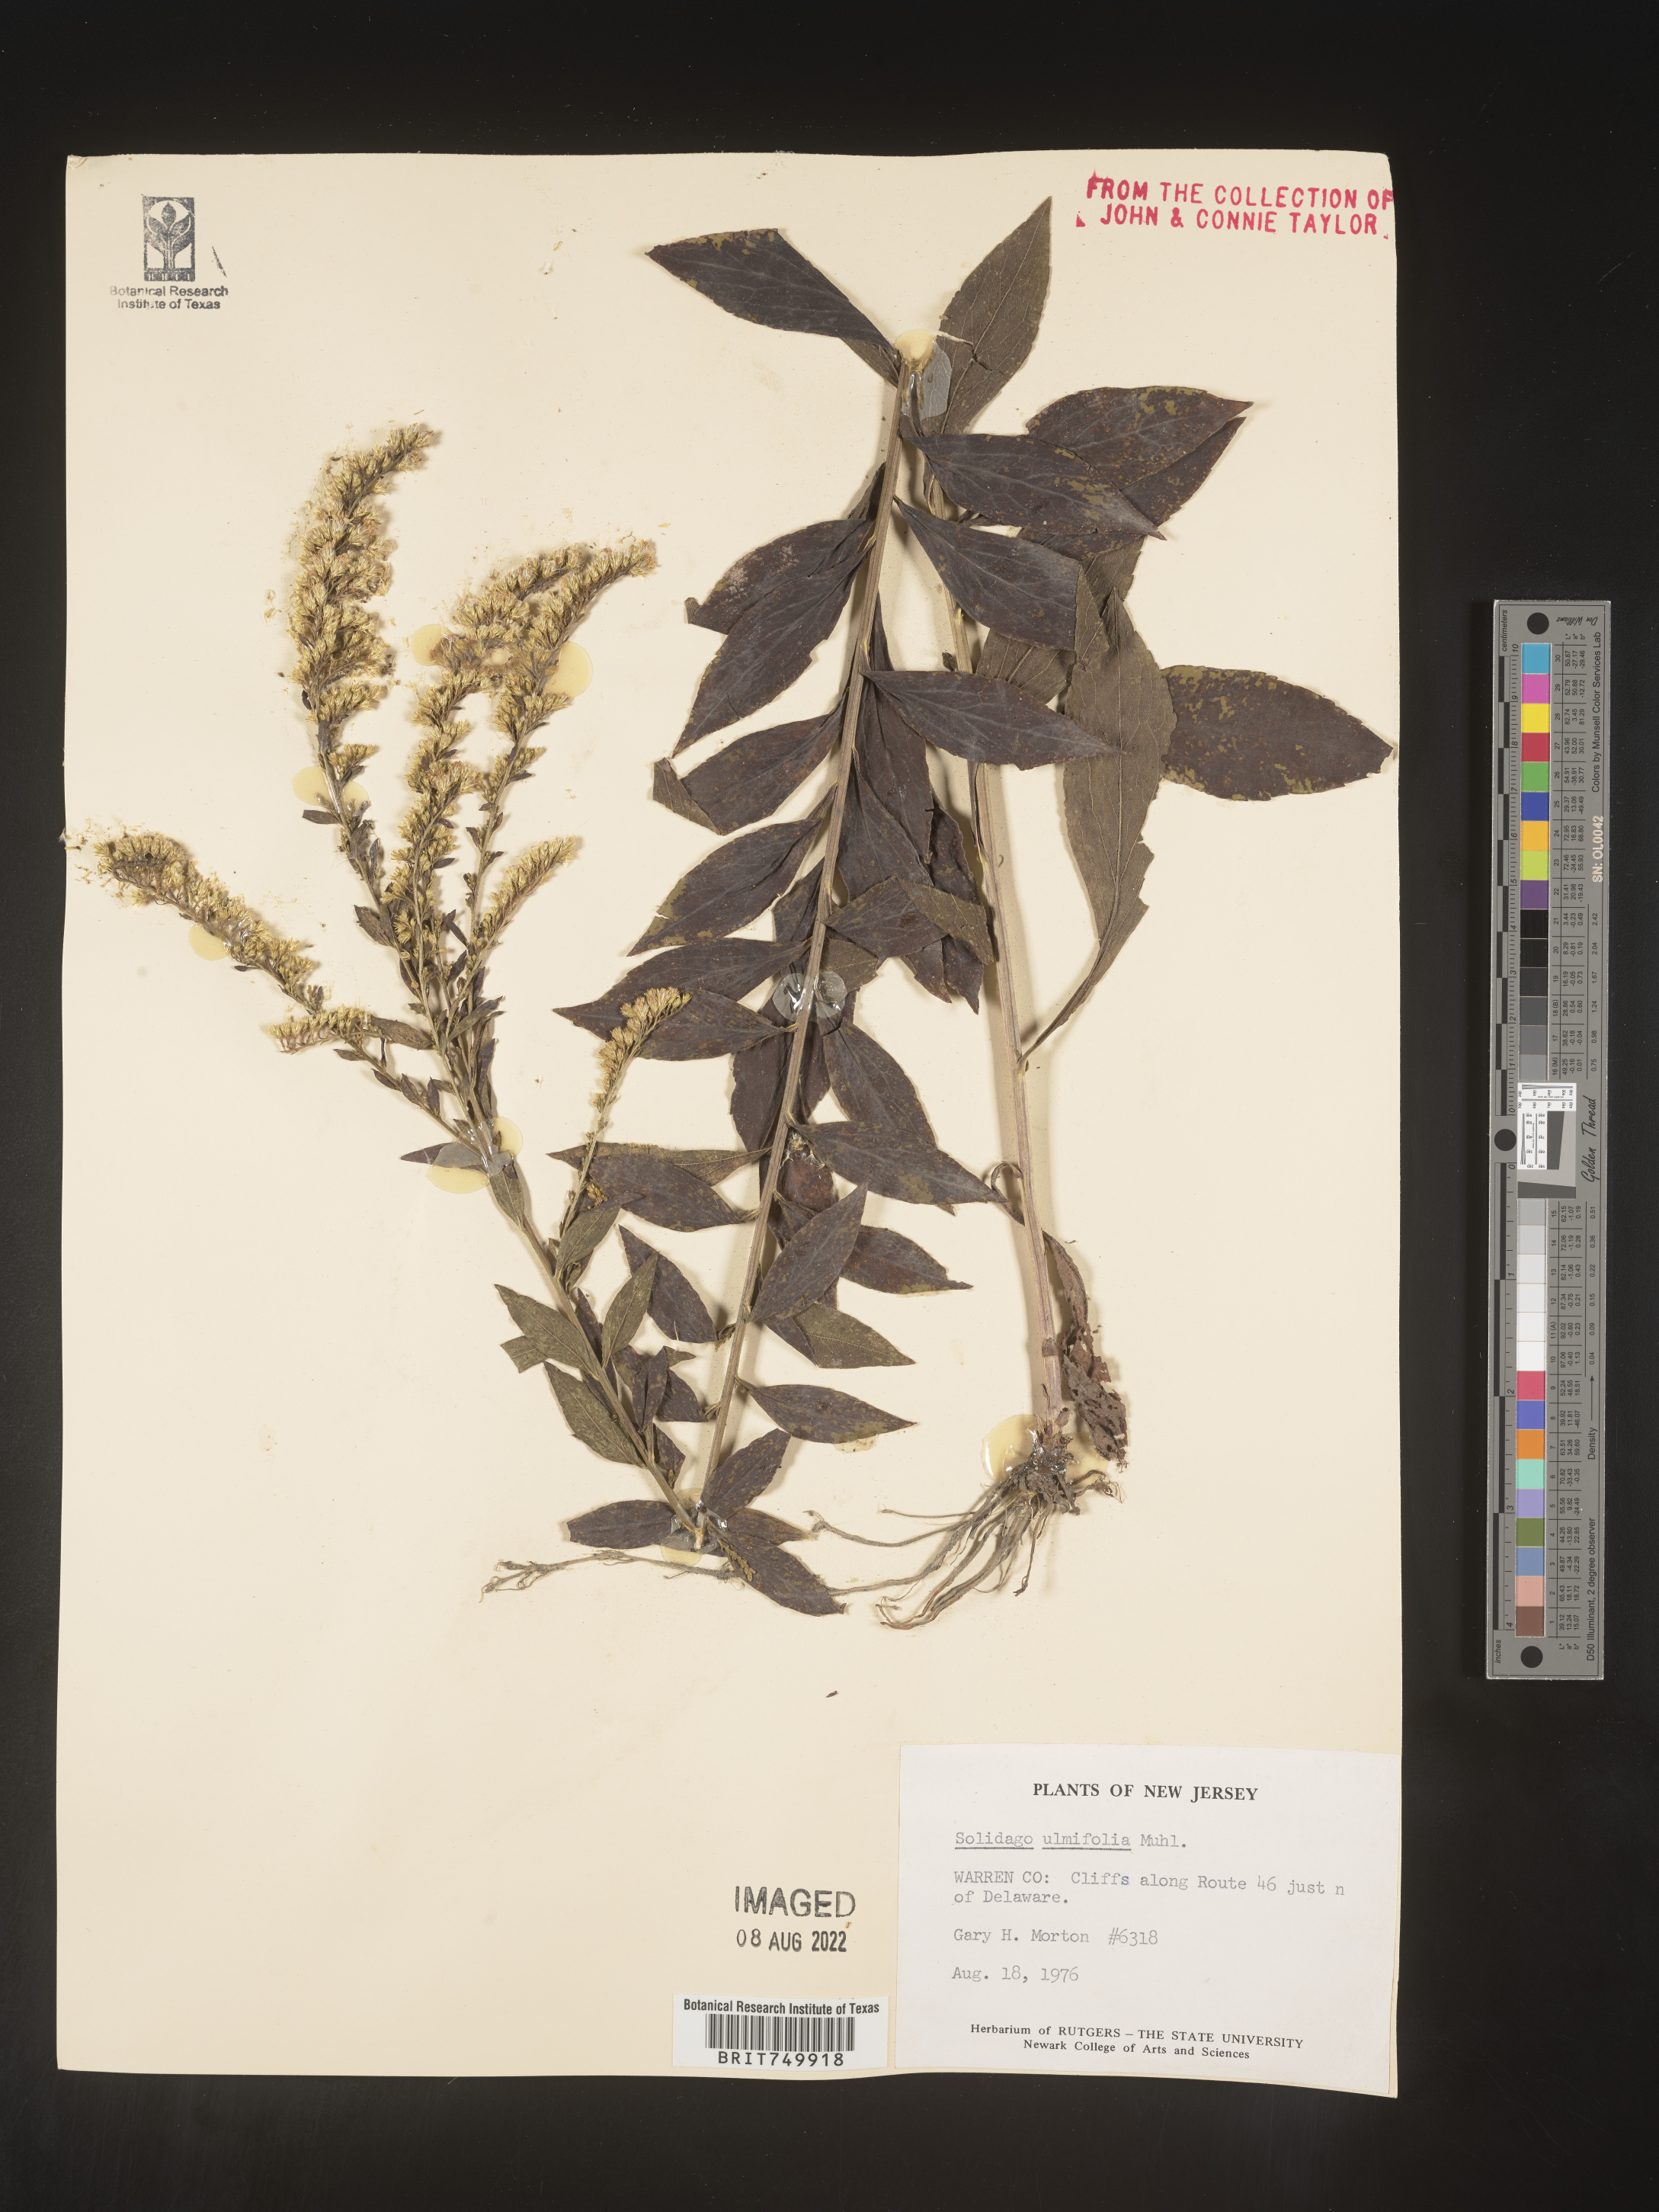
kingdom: Plantae
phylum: Tracheophyta
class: Magnoliopsida
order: Asterales
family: Asteraceae
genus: Solidago
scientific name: Solidago ulmifolia
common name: Elm-leaf goldenrod
